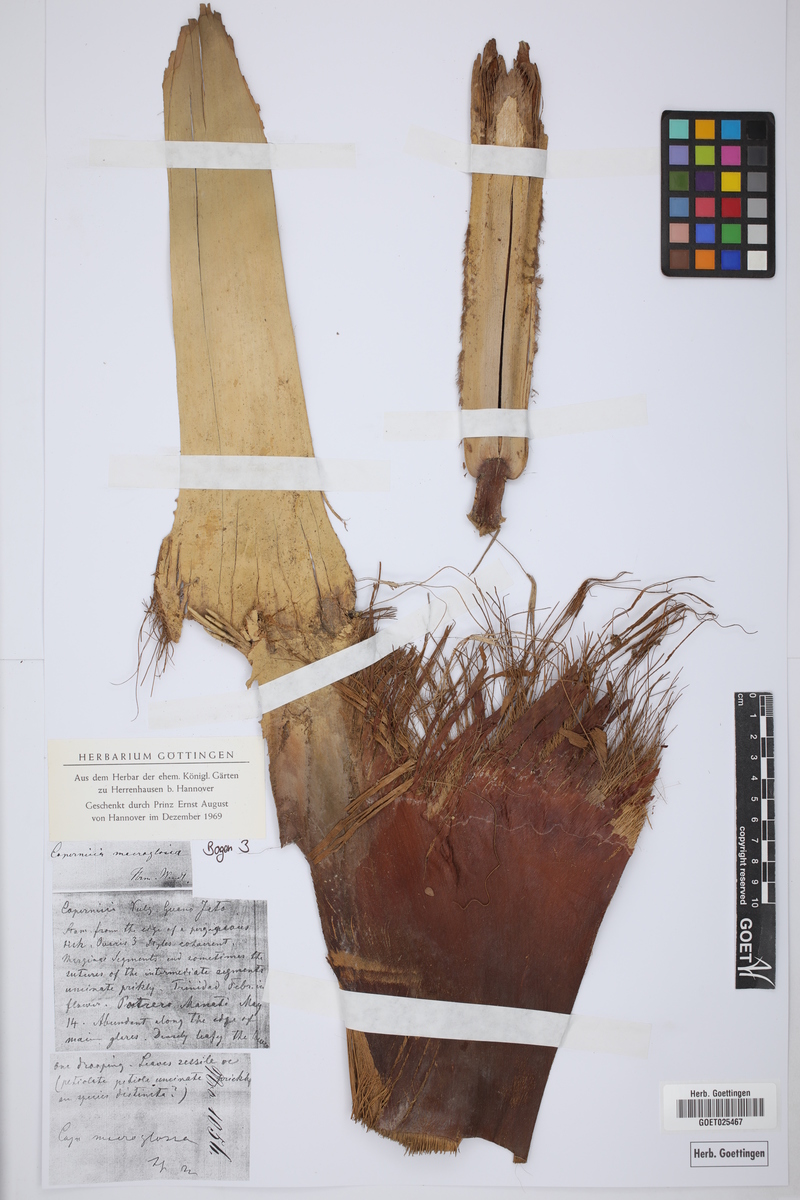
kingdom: Plantae
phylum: Tracheophyta
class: Liliopsida
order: Arecales
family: Arecaceae
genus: Copernicia
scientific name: Copernicia macroglossa
